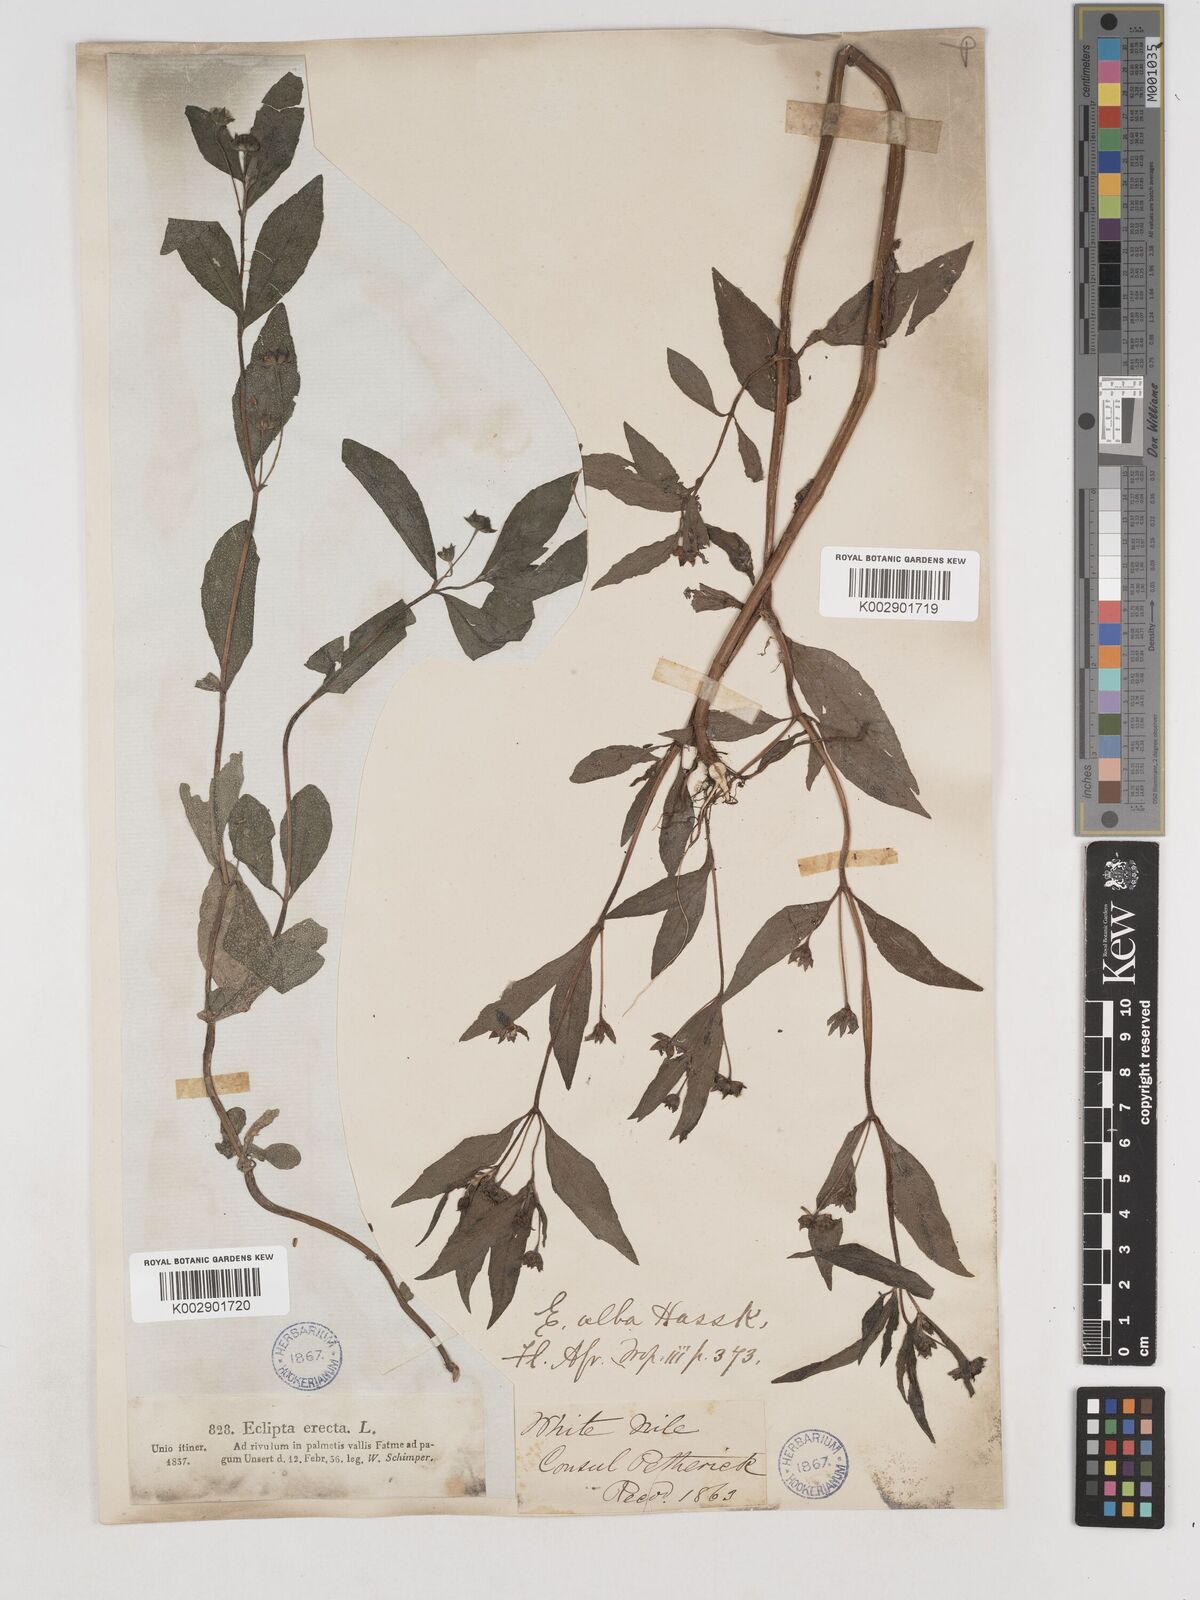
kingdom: Plantae
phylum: Tracheophyta
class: Magnoliopsida
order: Asterales
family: Asteraceae
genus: Eclipta
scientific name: Eclipta prostrata
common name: False daisy
